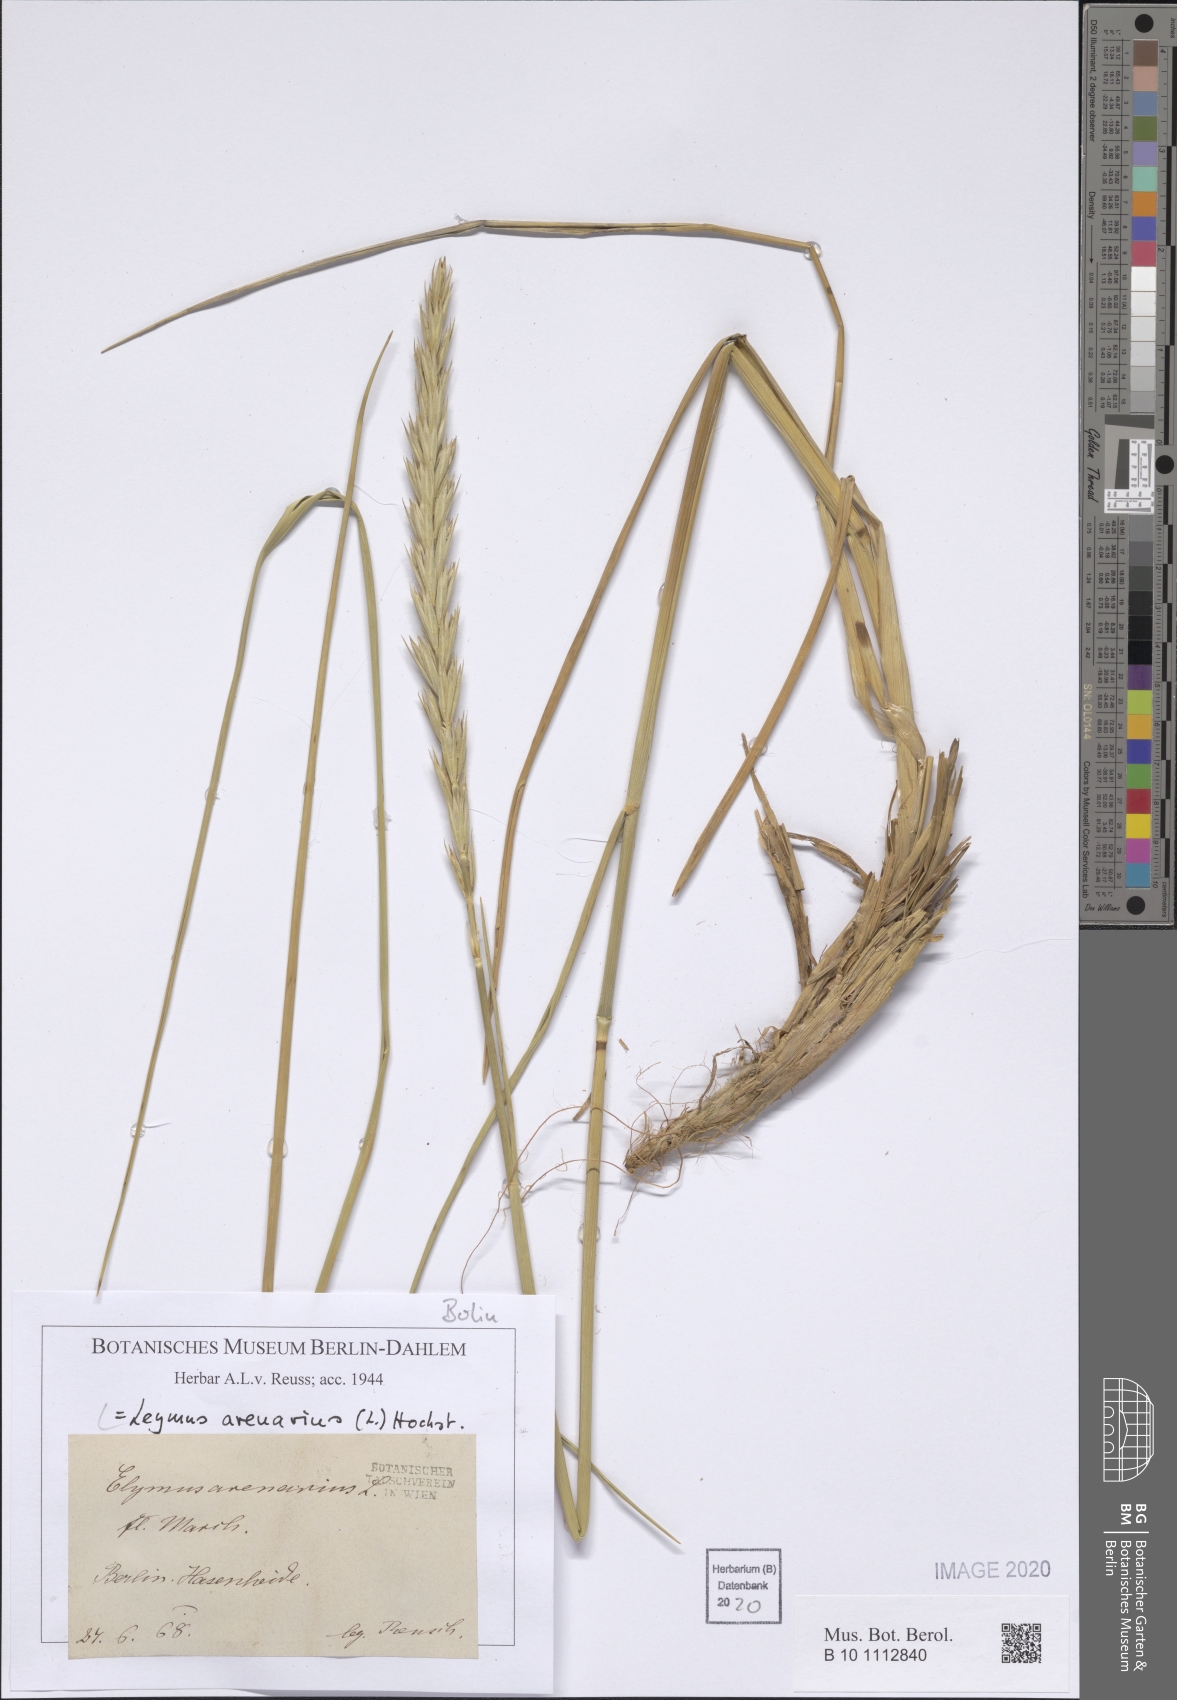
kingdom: Plantae
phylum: Tracheophyta
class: Liliopsida
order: Poales
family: Poaceae
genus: Leymus
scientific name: Leymus arenarius
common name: Lyme-grass
